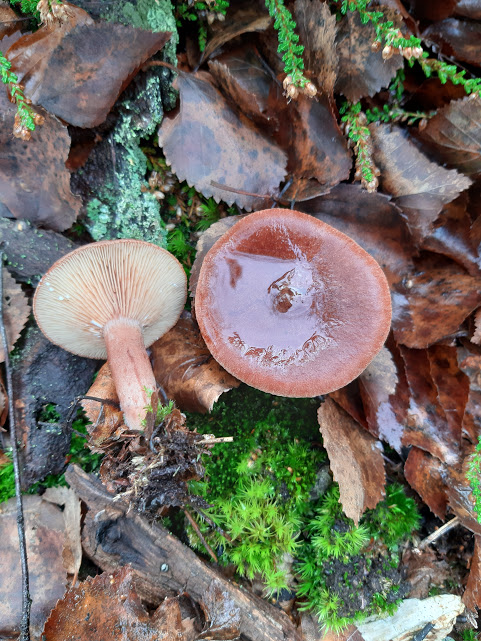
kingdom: Fungi
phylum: Basidiomycota
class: Agaricomycetes
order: Russulales
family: Russulaceae
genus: Lactarius
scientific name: Lactarius rufus
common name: rødbrun mælkehat
